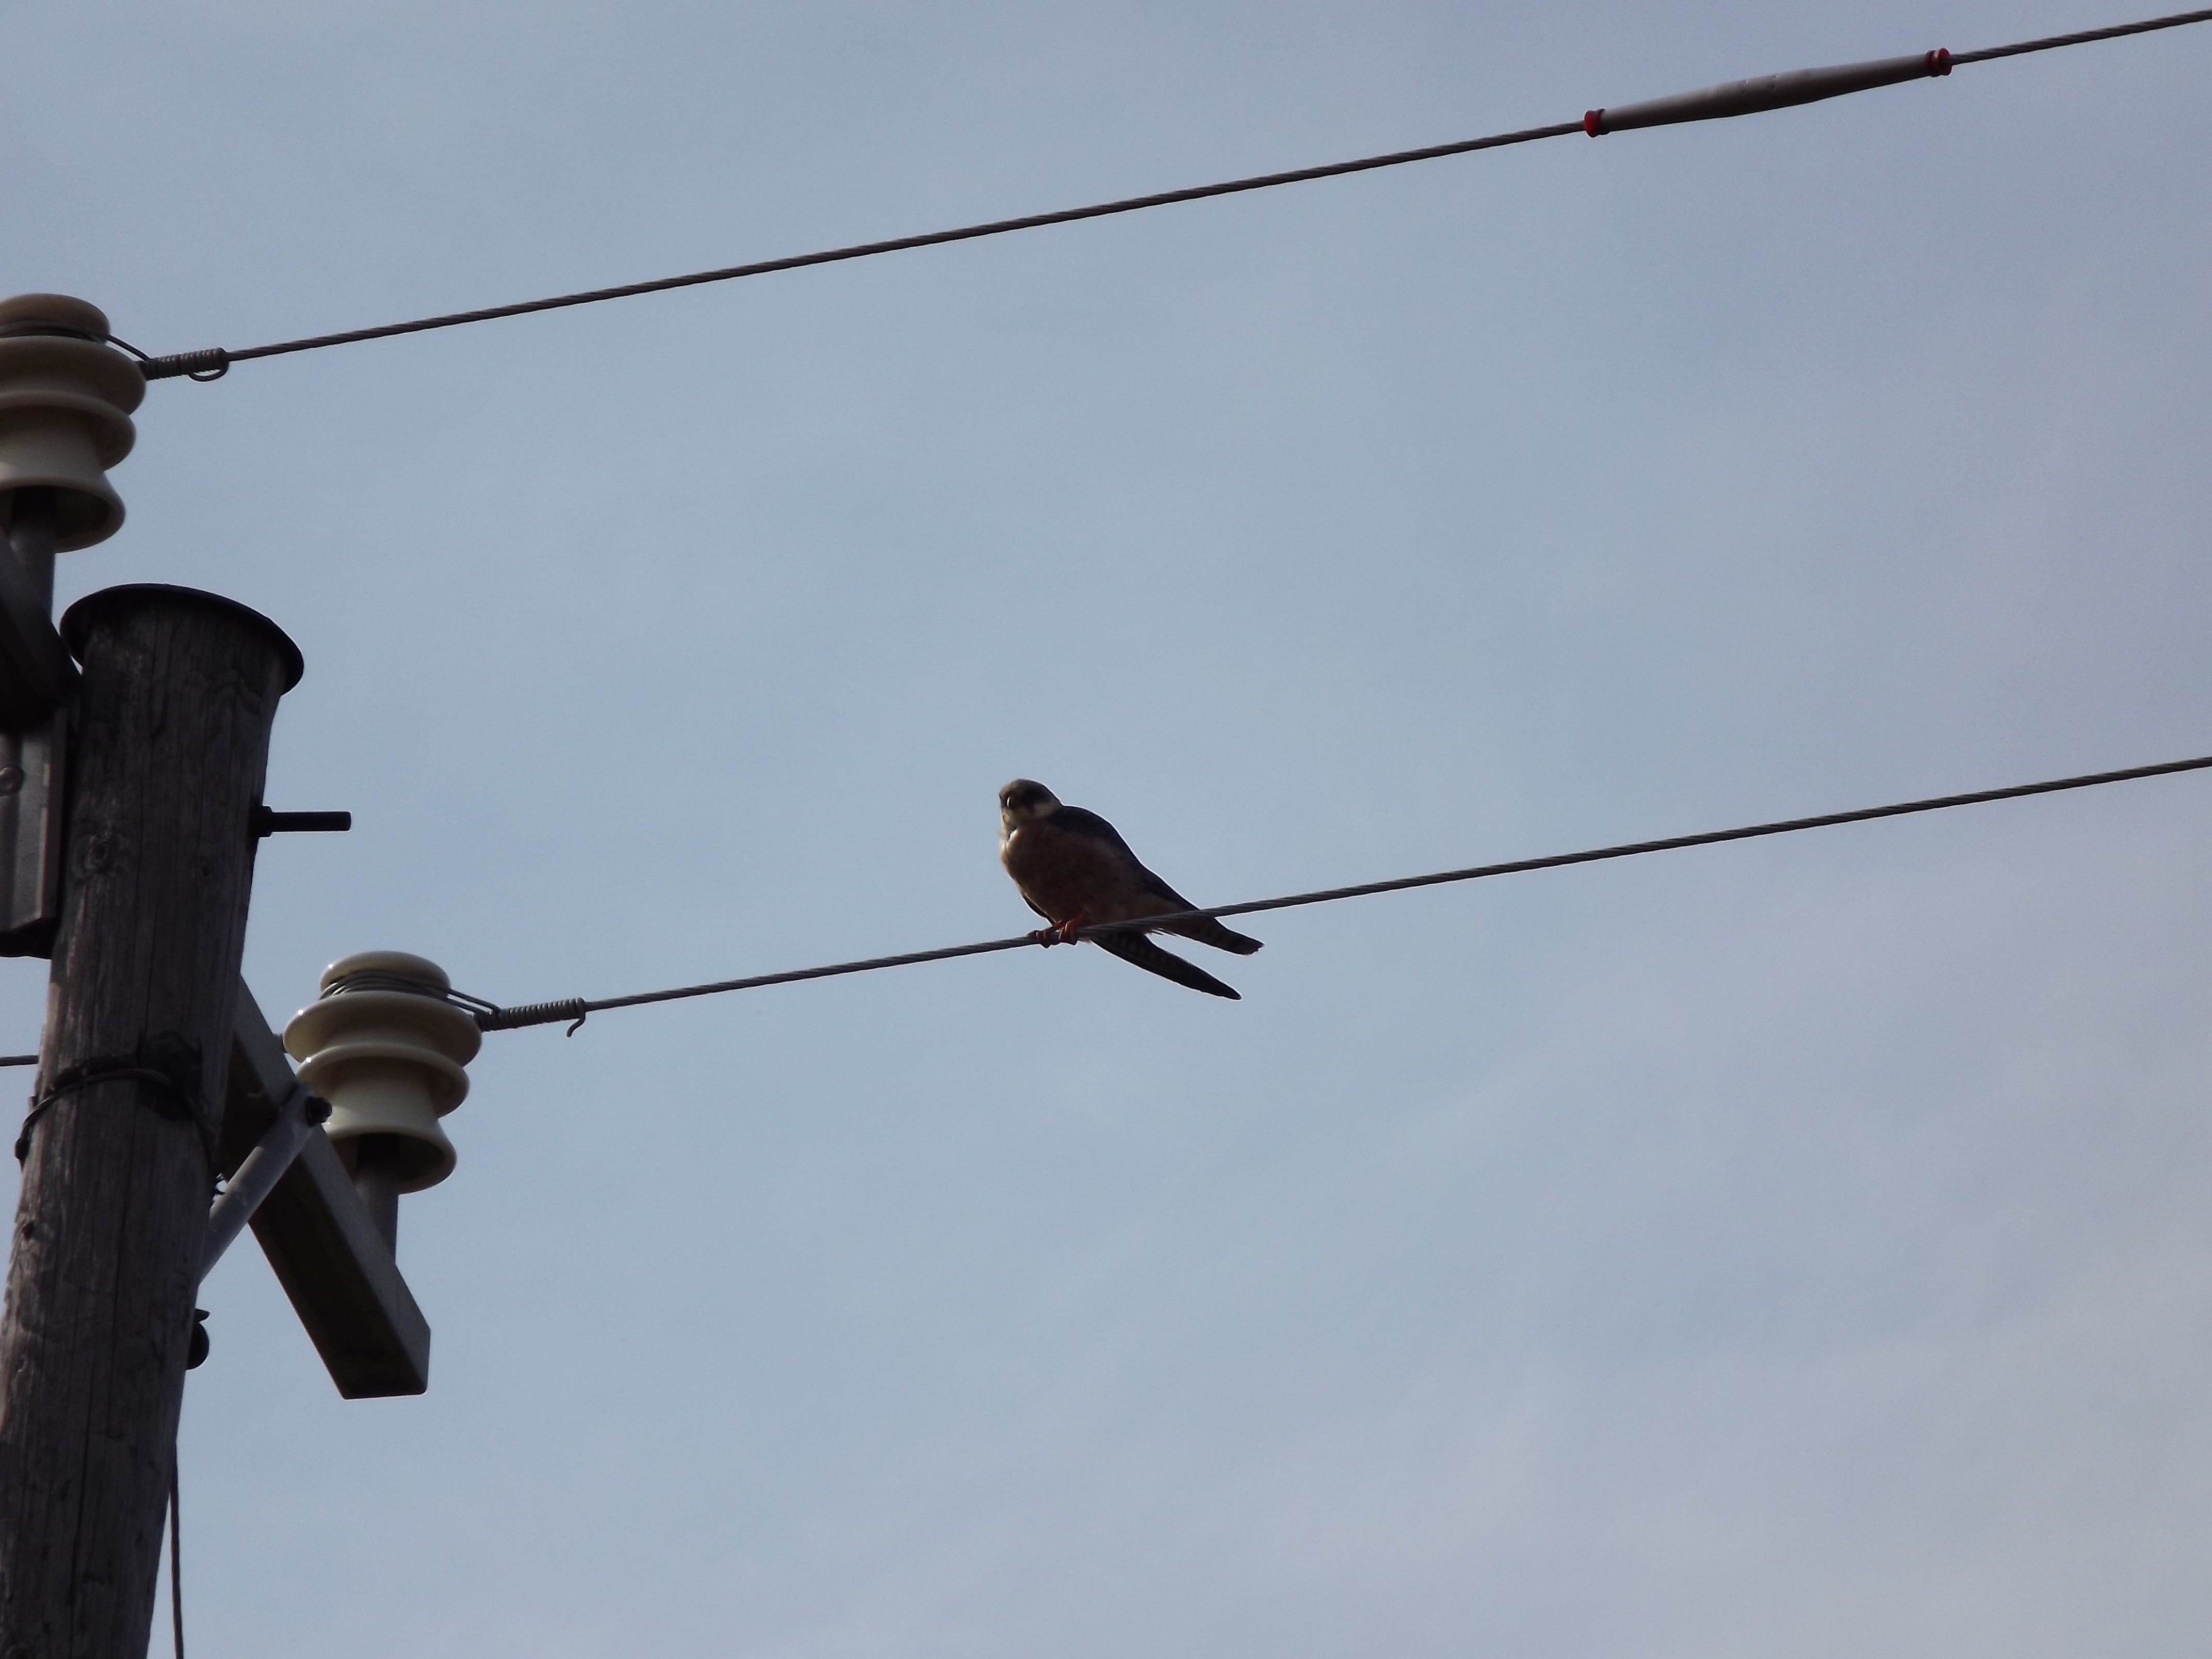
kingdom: Animalia
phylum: Chordata
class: Aves
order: Falconiformes
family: Falconidae
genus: Falco
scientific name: Falco vespertinus
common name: Red-footed falcon
